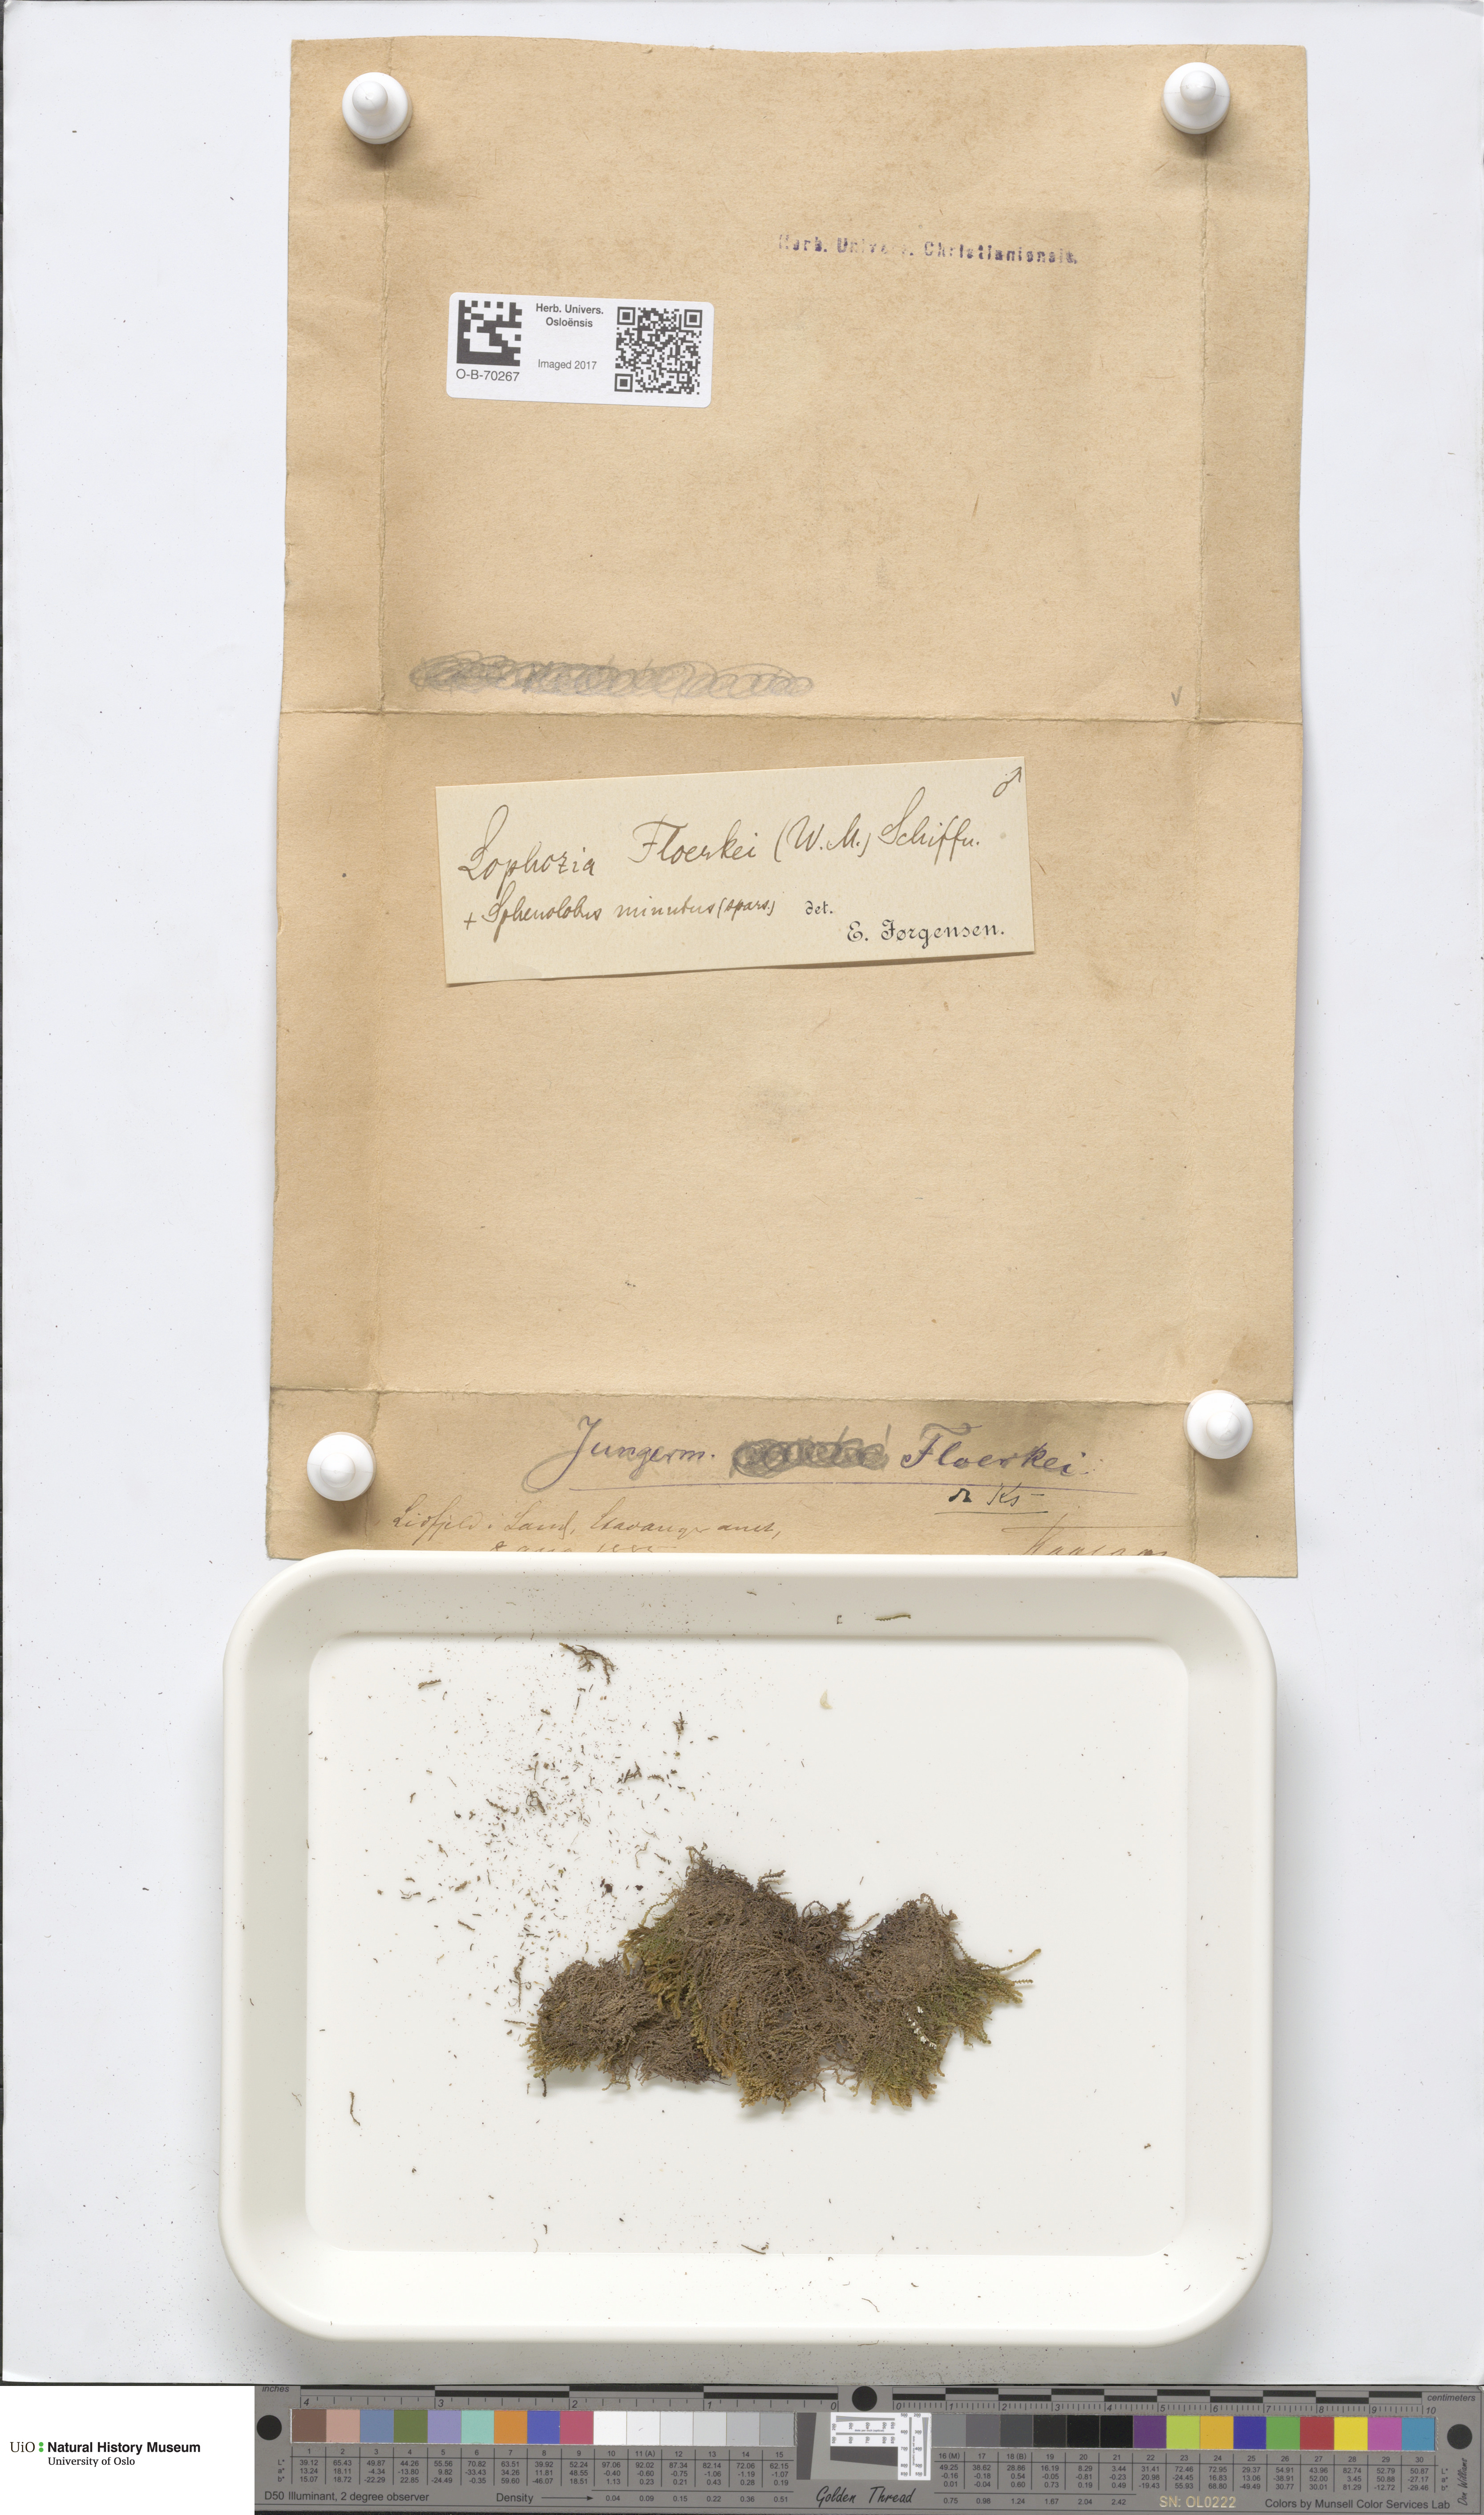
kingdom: Plantae
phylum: Marchantiophyta
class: Jungermanniopsida
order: Jungermanniales
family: Anastrophyllaceae
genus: Neoorthocaulis
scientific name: Neoorthocaulis floerkei
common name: Floerke's barbilophozia
